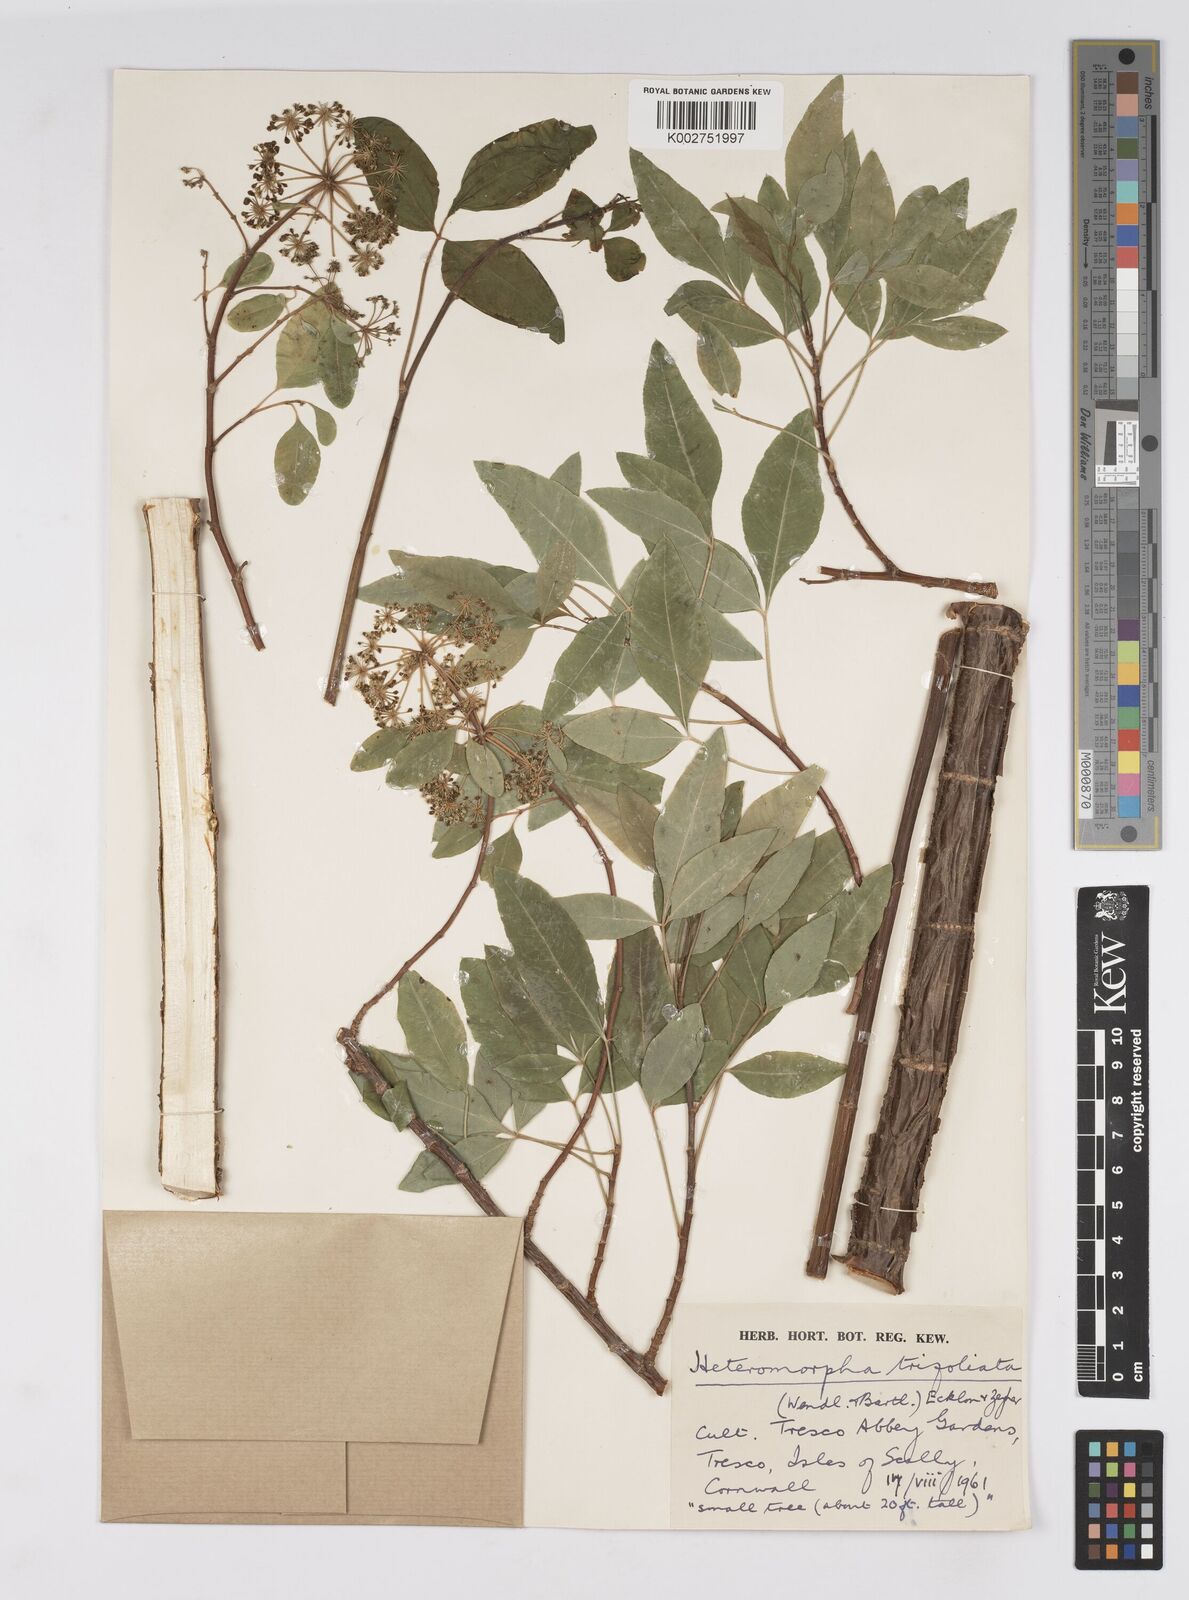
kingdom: Plantae
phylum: Tracheophyta
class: Magnoliopsida
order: Apiales
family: Apiaceae
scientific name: Apiaceae
